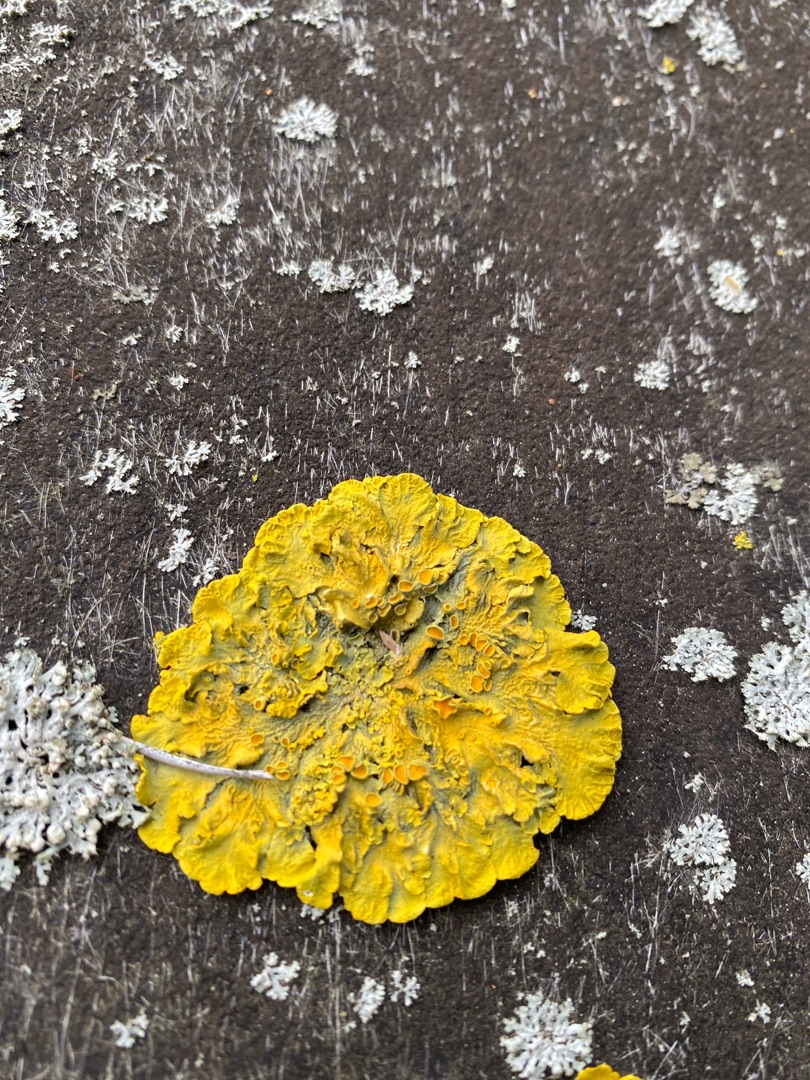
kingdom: Fungi
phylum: Ascomycota
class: Lecanoromycetes
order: Teloschistales
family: Teloschistaceae
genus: Xanthoria
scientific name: Xanthoria parietina
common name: Almindelig væggelav
